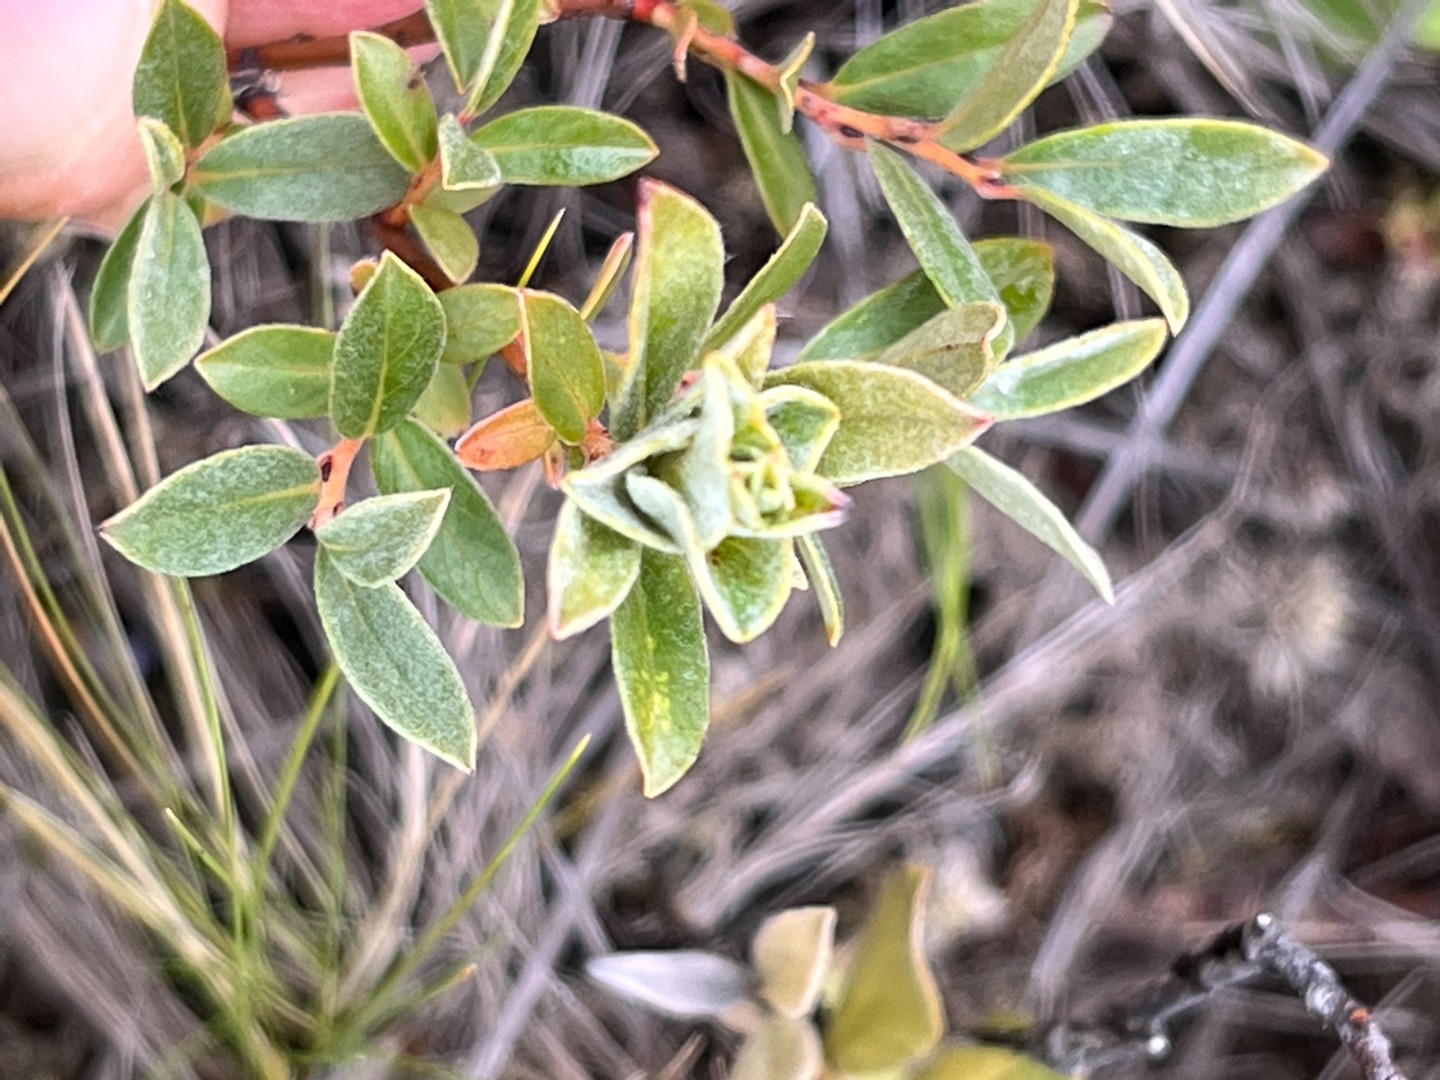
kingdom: Animalia
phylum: Arthropoda
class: Insecta
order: Diptera
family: Cecidomyiidae
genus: Rabdophaga
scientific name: Rabdophaga jaapi
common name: Krybpilegalmyg
